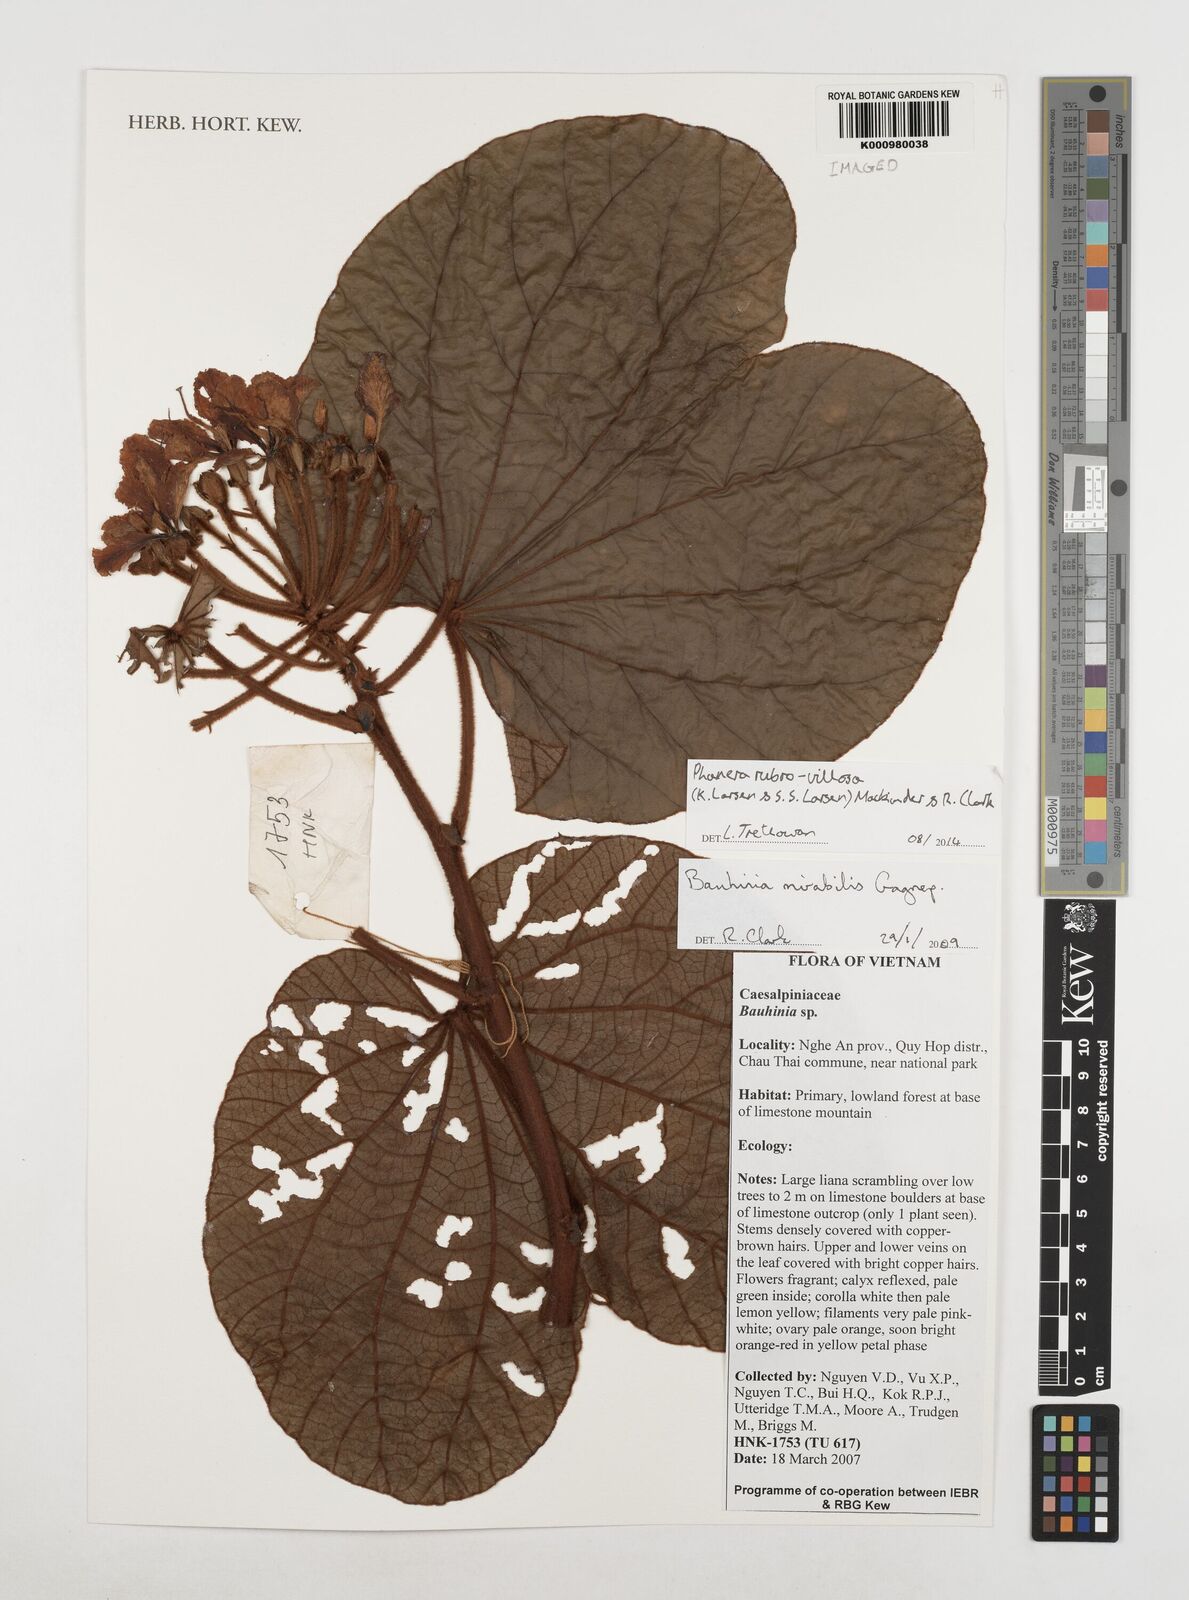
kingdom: Plantae
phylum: Tracheophyta
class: Magnoliopsida
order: Fabales
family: Fabaceae
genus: Phanera
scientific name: Phanera
